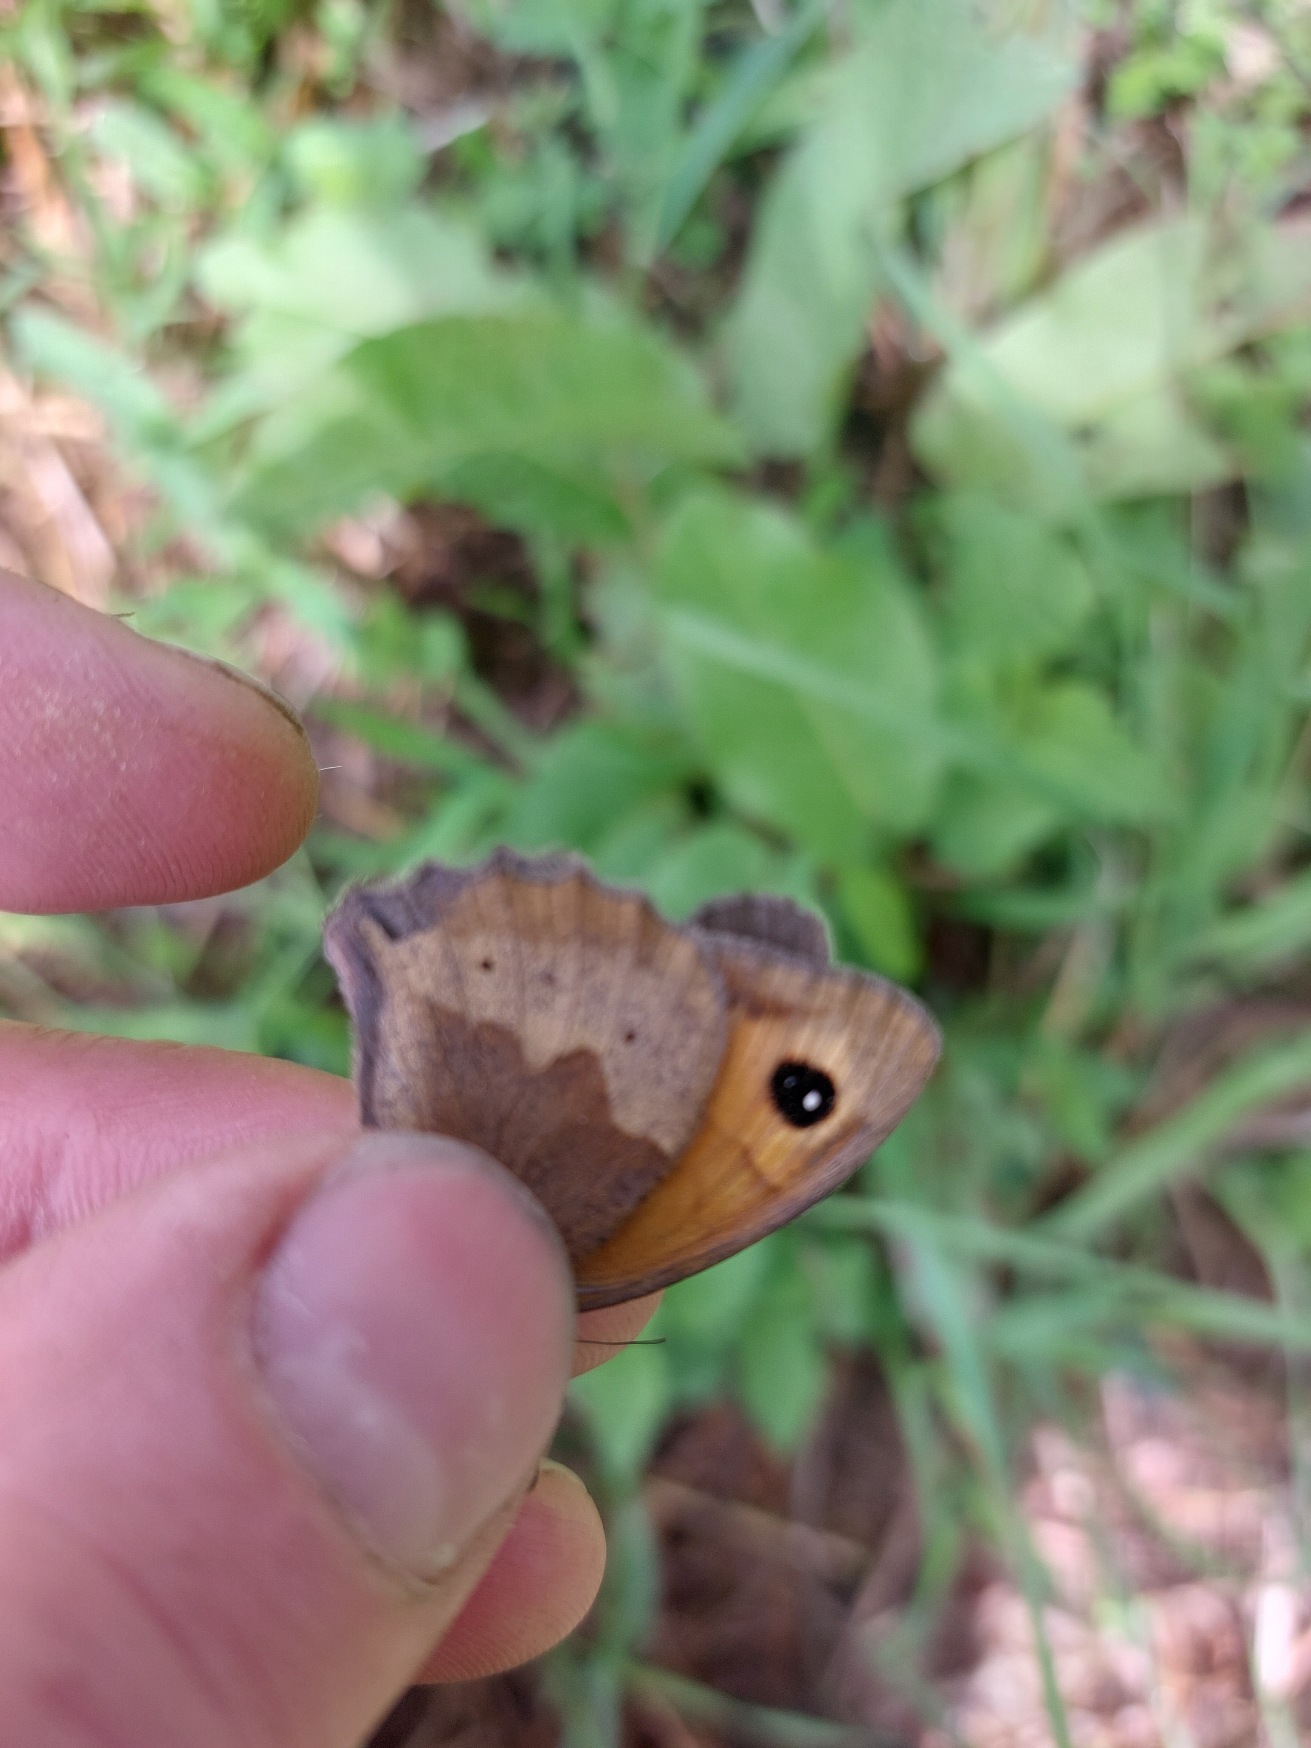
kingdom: Animalia
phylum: Arthropoda
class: Insecta
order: Lepidoptera
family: Nymphalidae
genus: Maniola
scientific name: Maniola jurtina
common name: Græsrandøje
